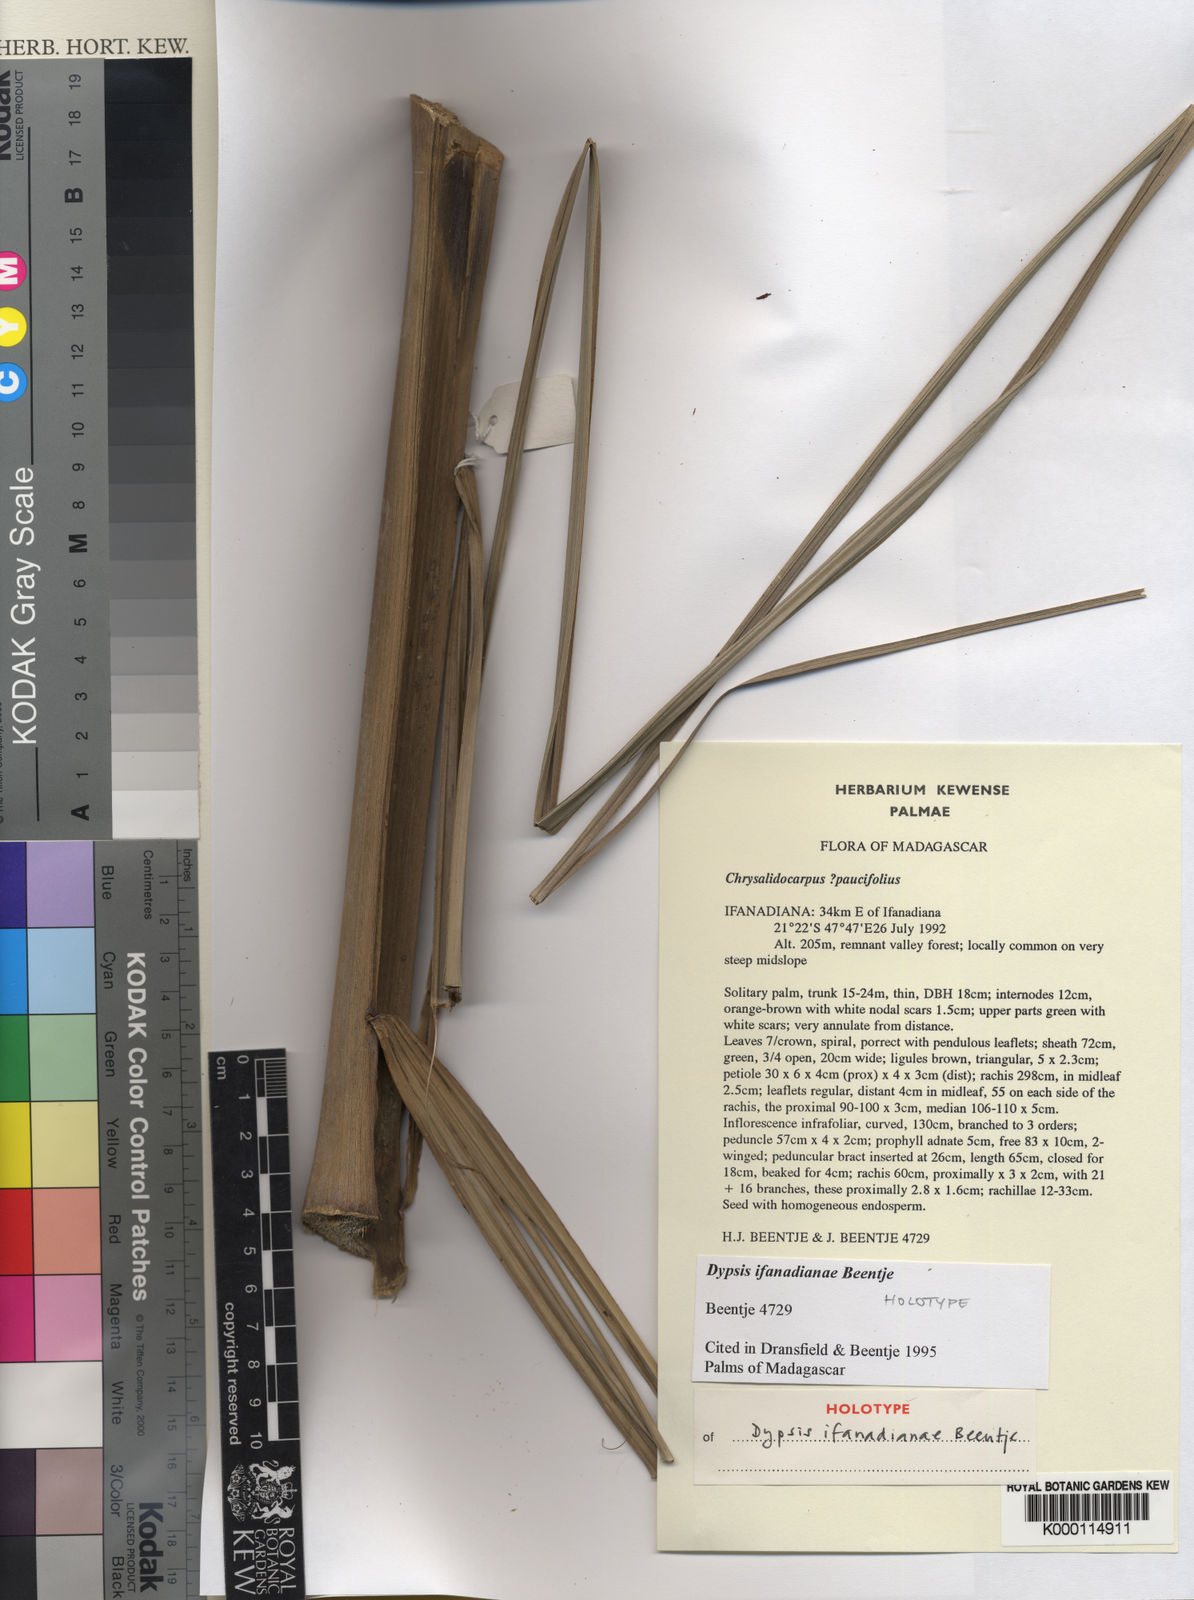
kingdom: Plantae
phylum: Tracheophyta
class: Liliopsida
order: Arecales
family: Arecaceae
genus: Dypsis
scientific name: Dypsis
